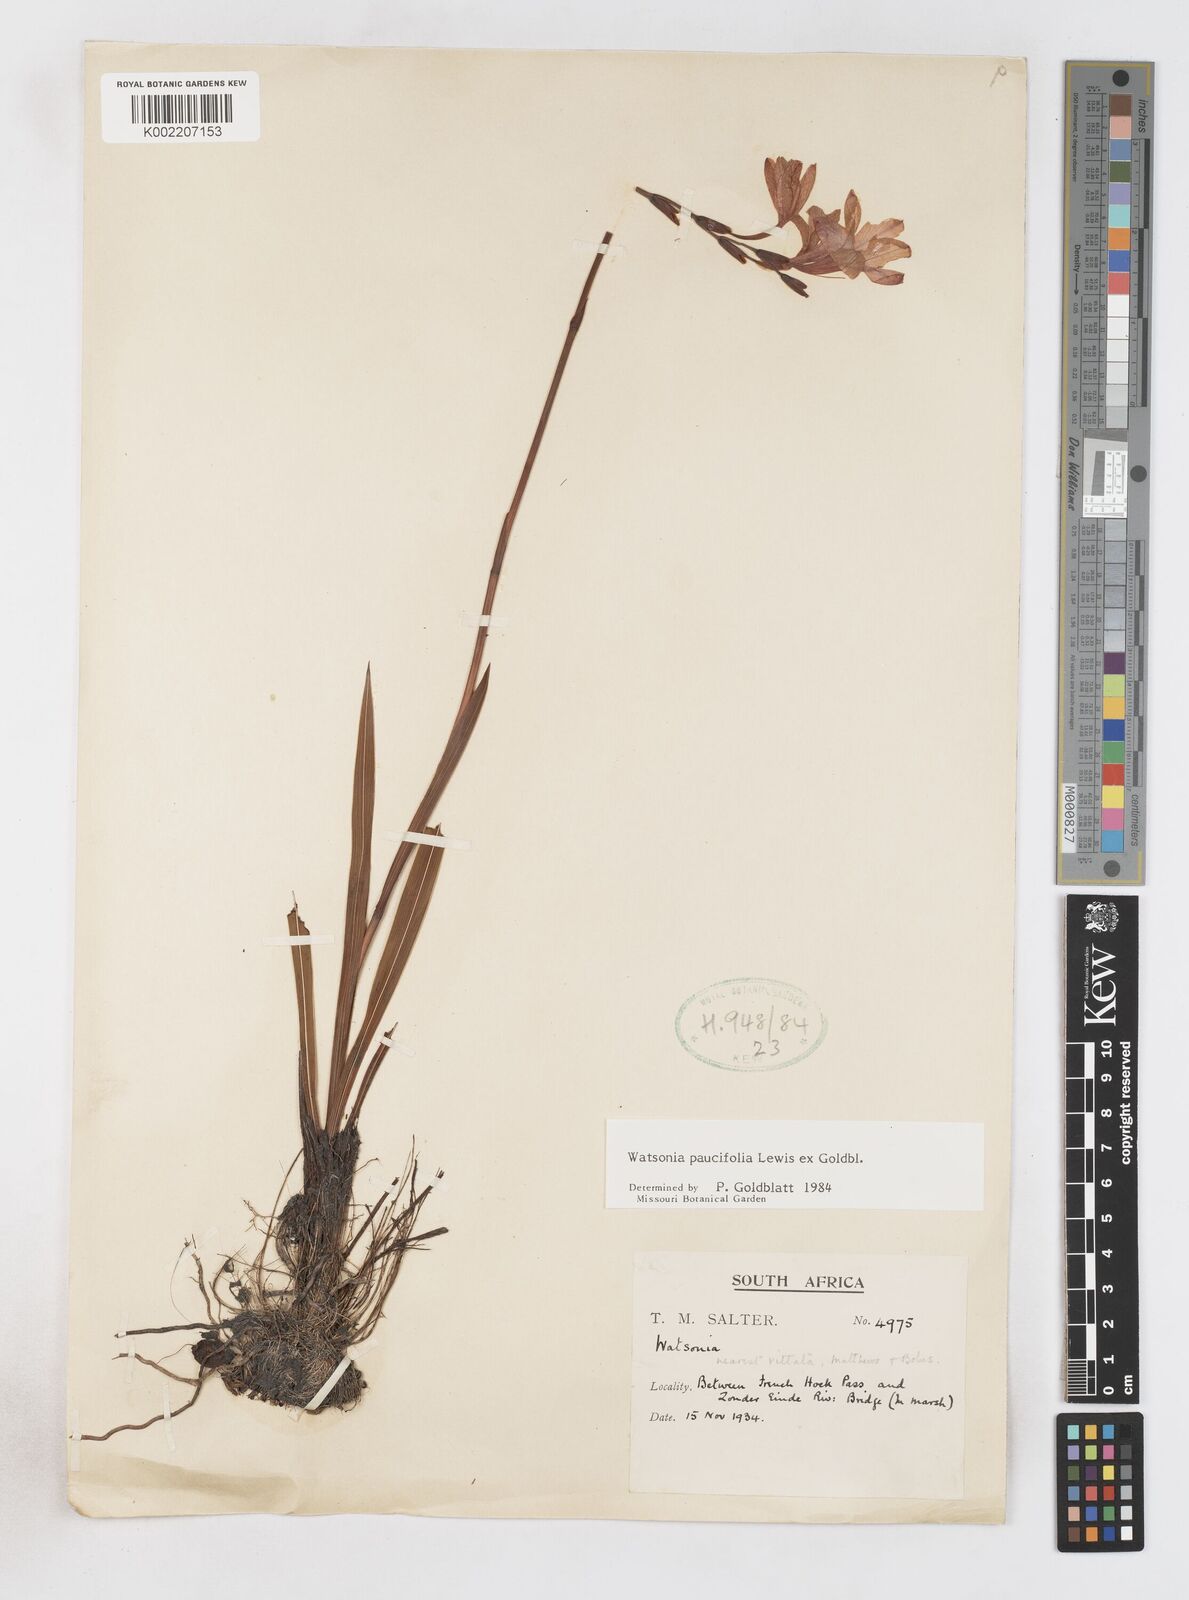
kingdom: Plantae
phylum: Tracheophyta
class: Liliopsida
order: Asparagales
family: Iridaceae
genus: Watsonia
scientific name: Watsonia distans
